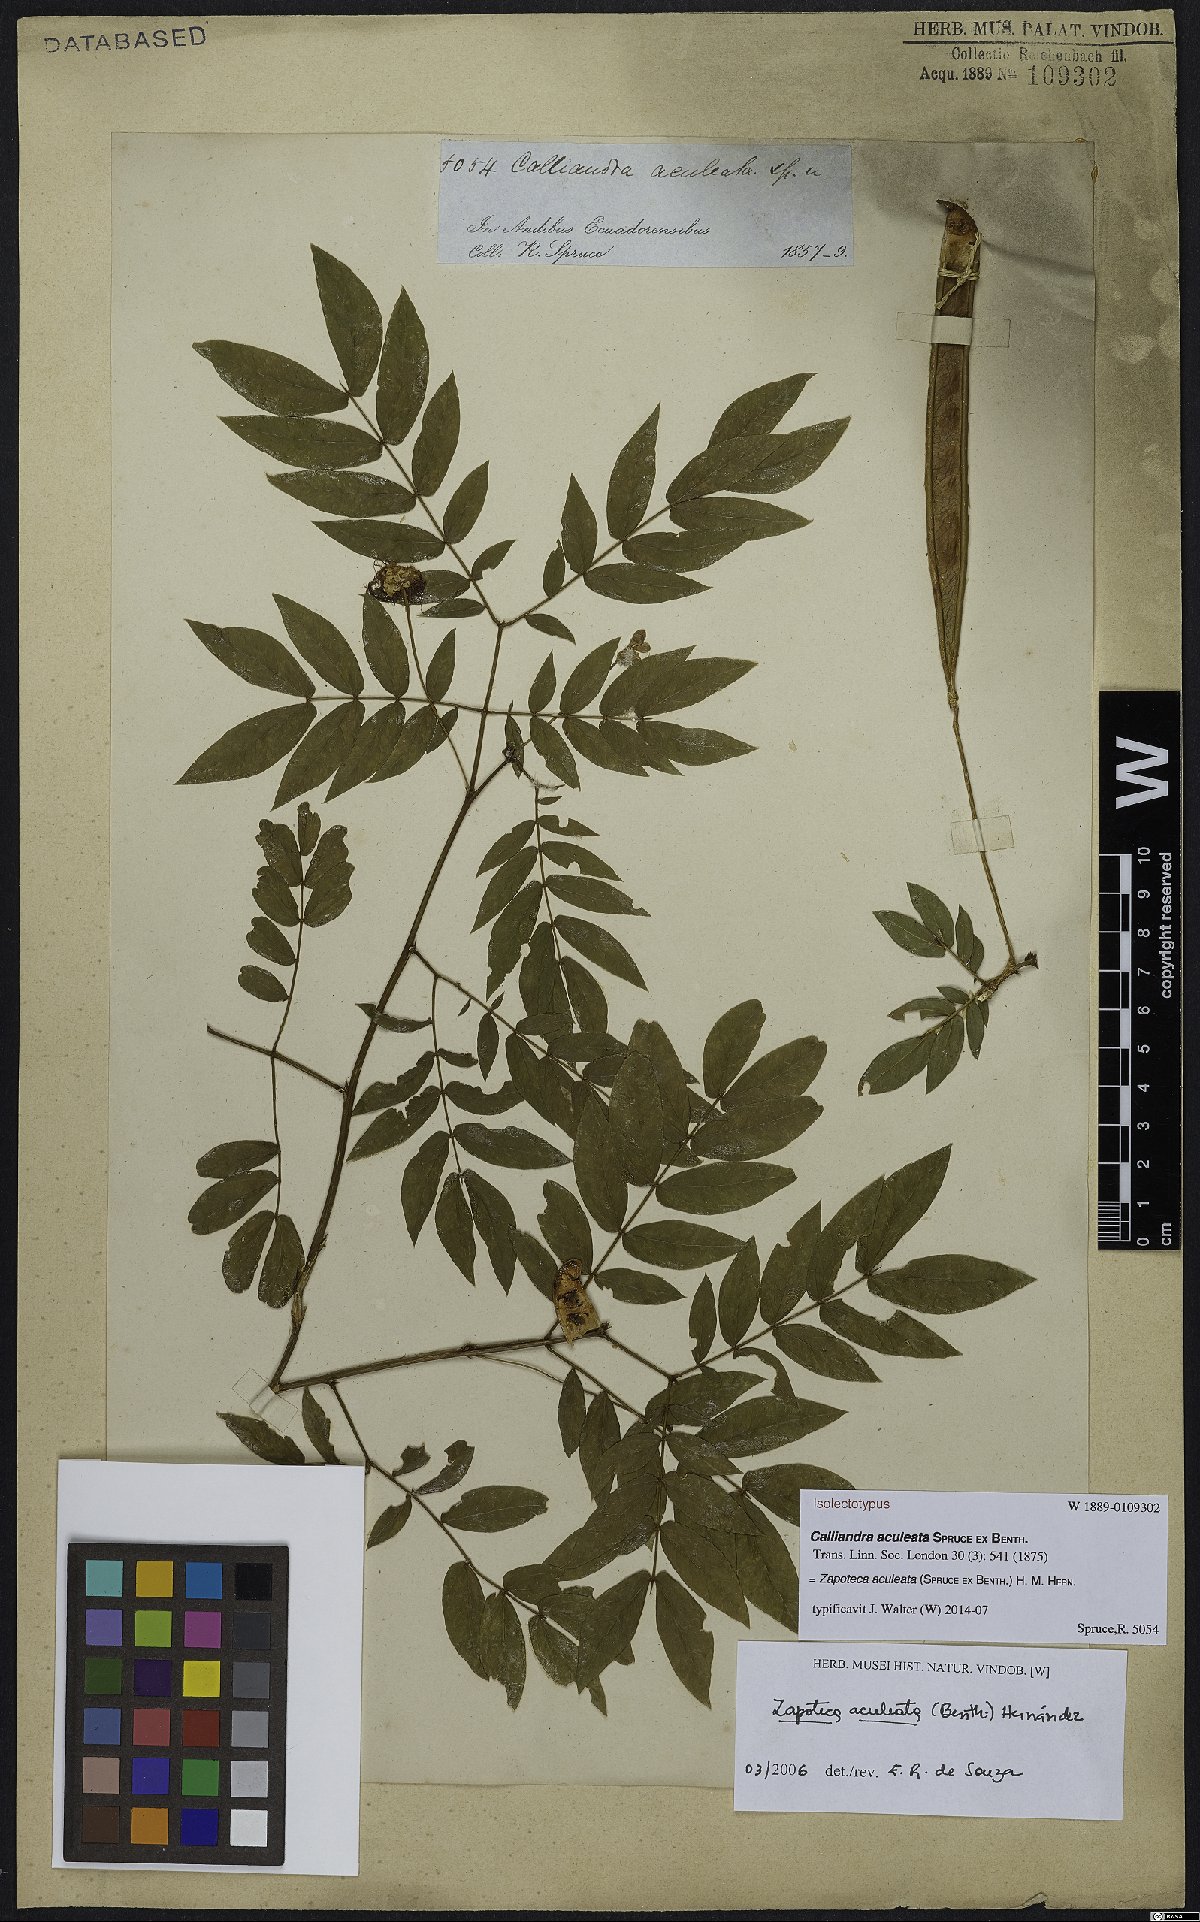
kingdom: Plantae
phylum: Tracheophyta
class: Magnoliopsida
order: Fabales
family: Fabaceae
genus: Zapoteca
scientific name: Zapoteca aculeata
